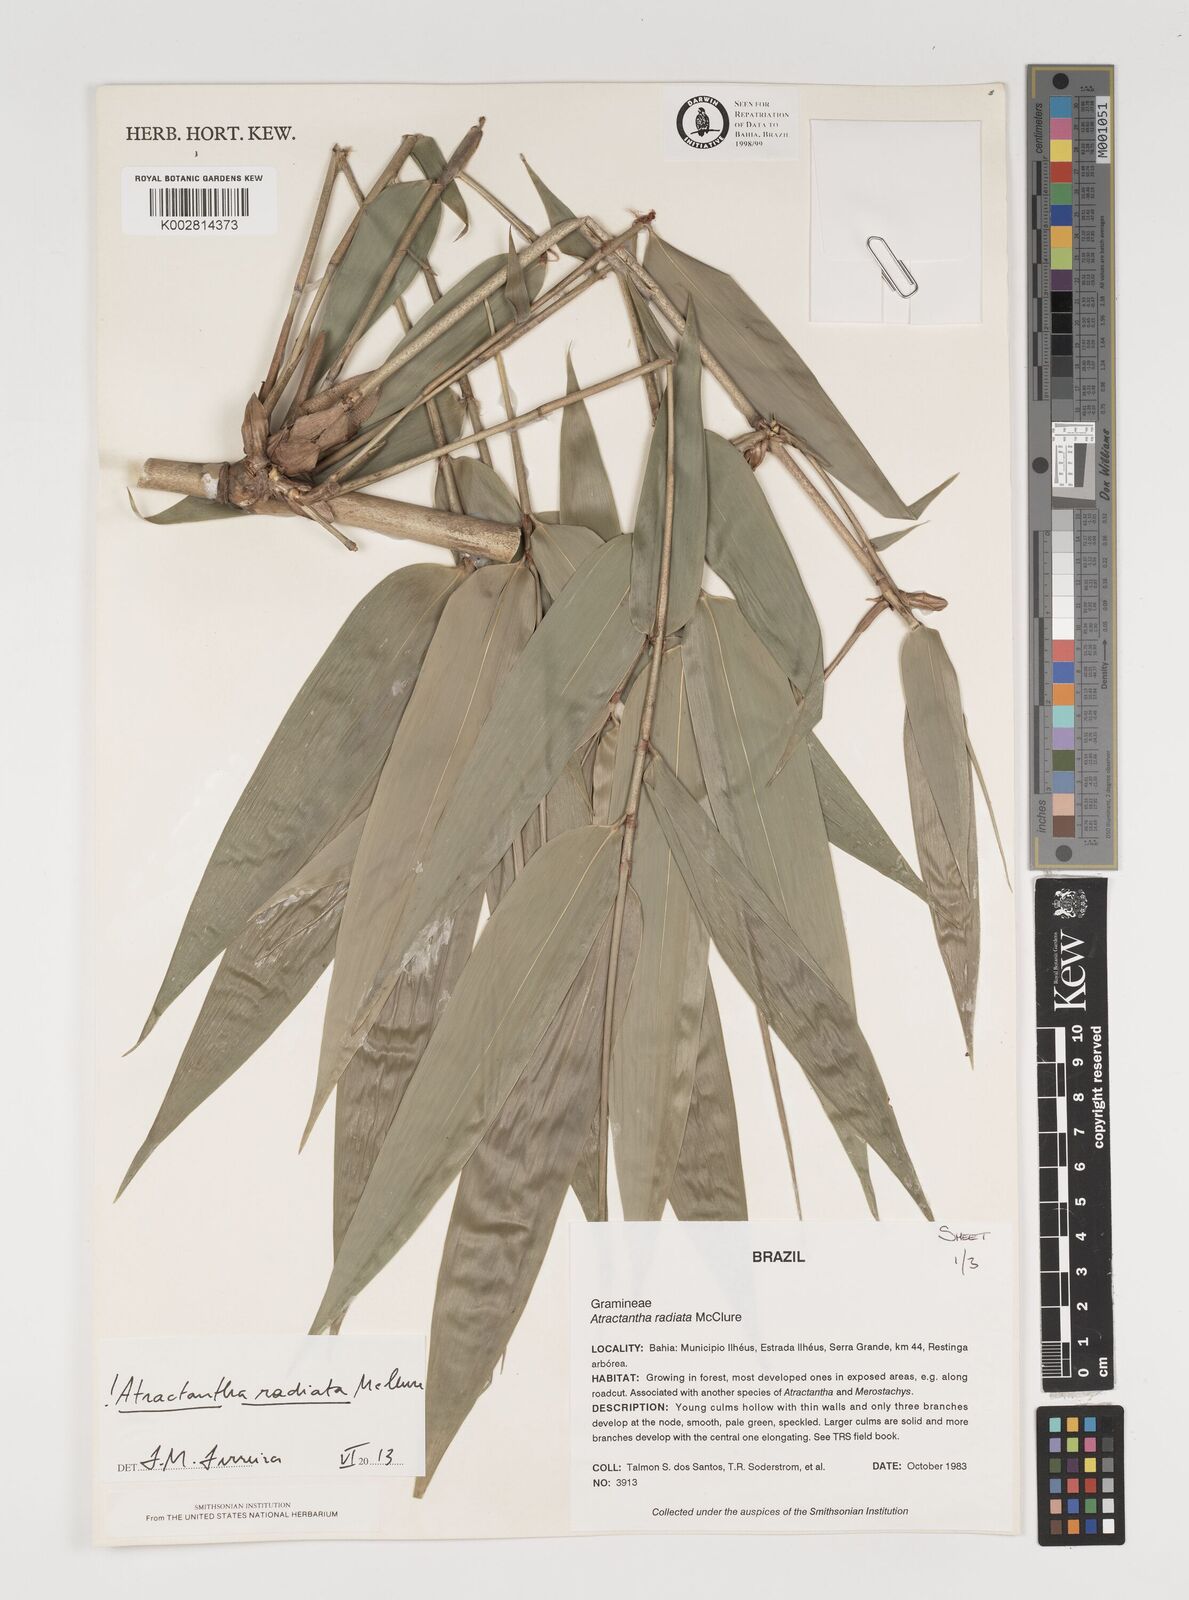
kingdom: Plantae
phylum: Tracheophyta
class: Liliopsida
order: Poales
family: Poaceae
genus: Atractantha
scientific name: Atractantha radiata
